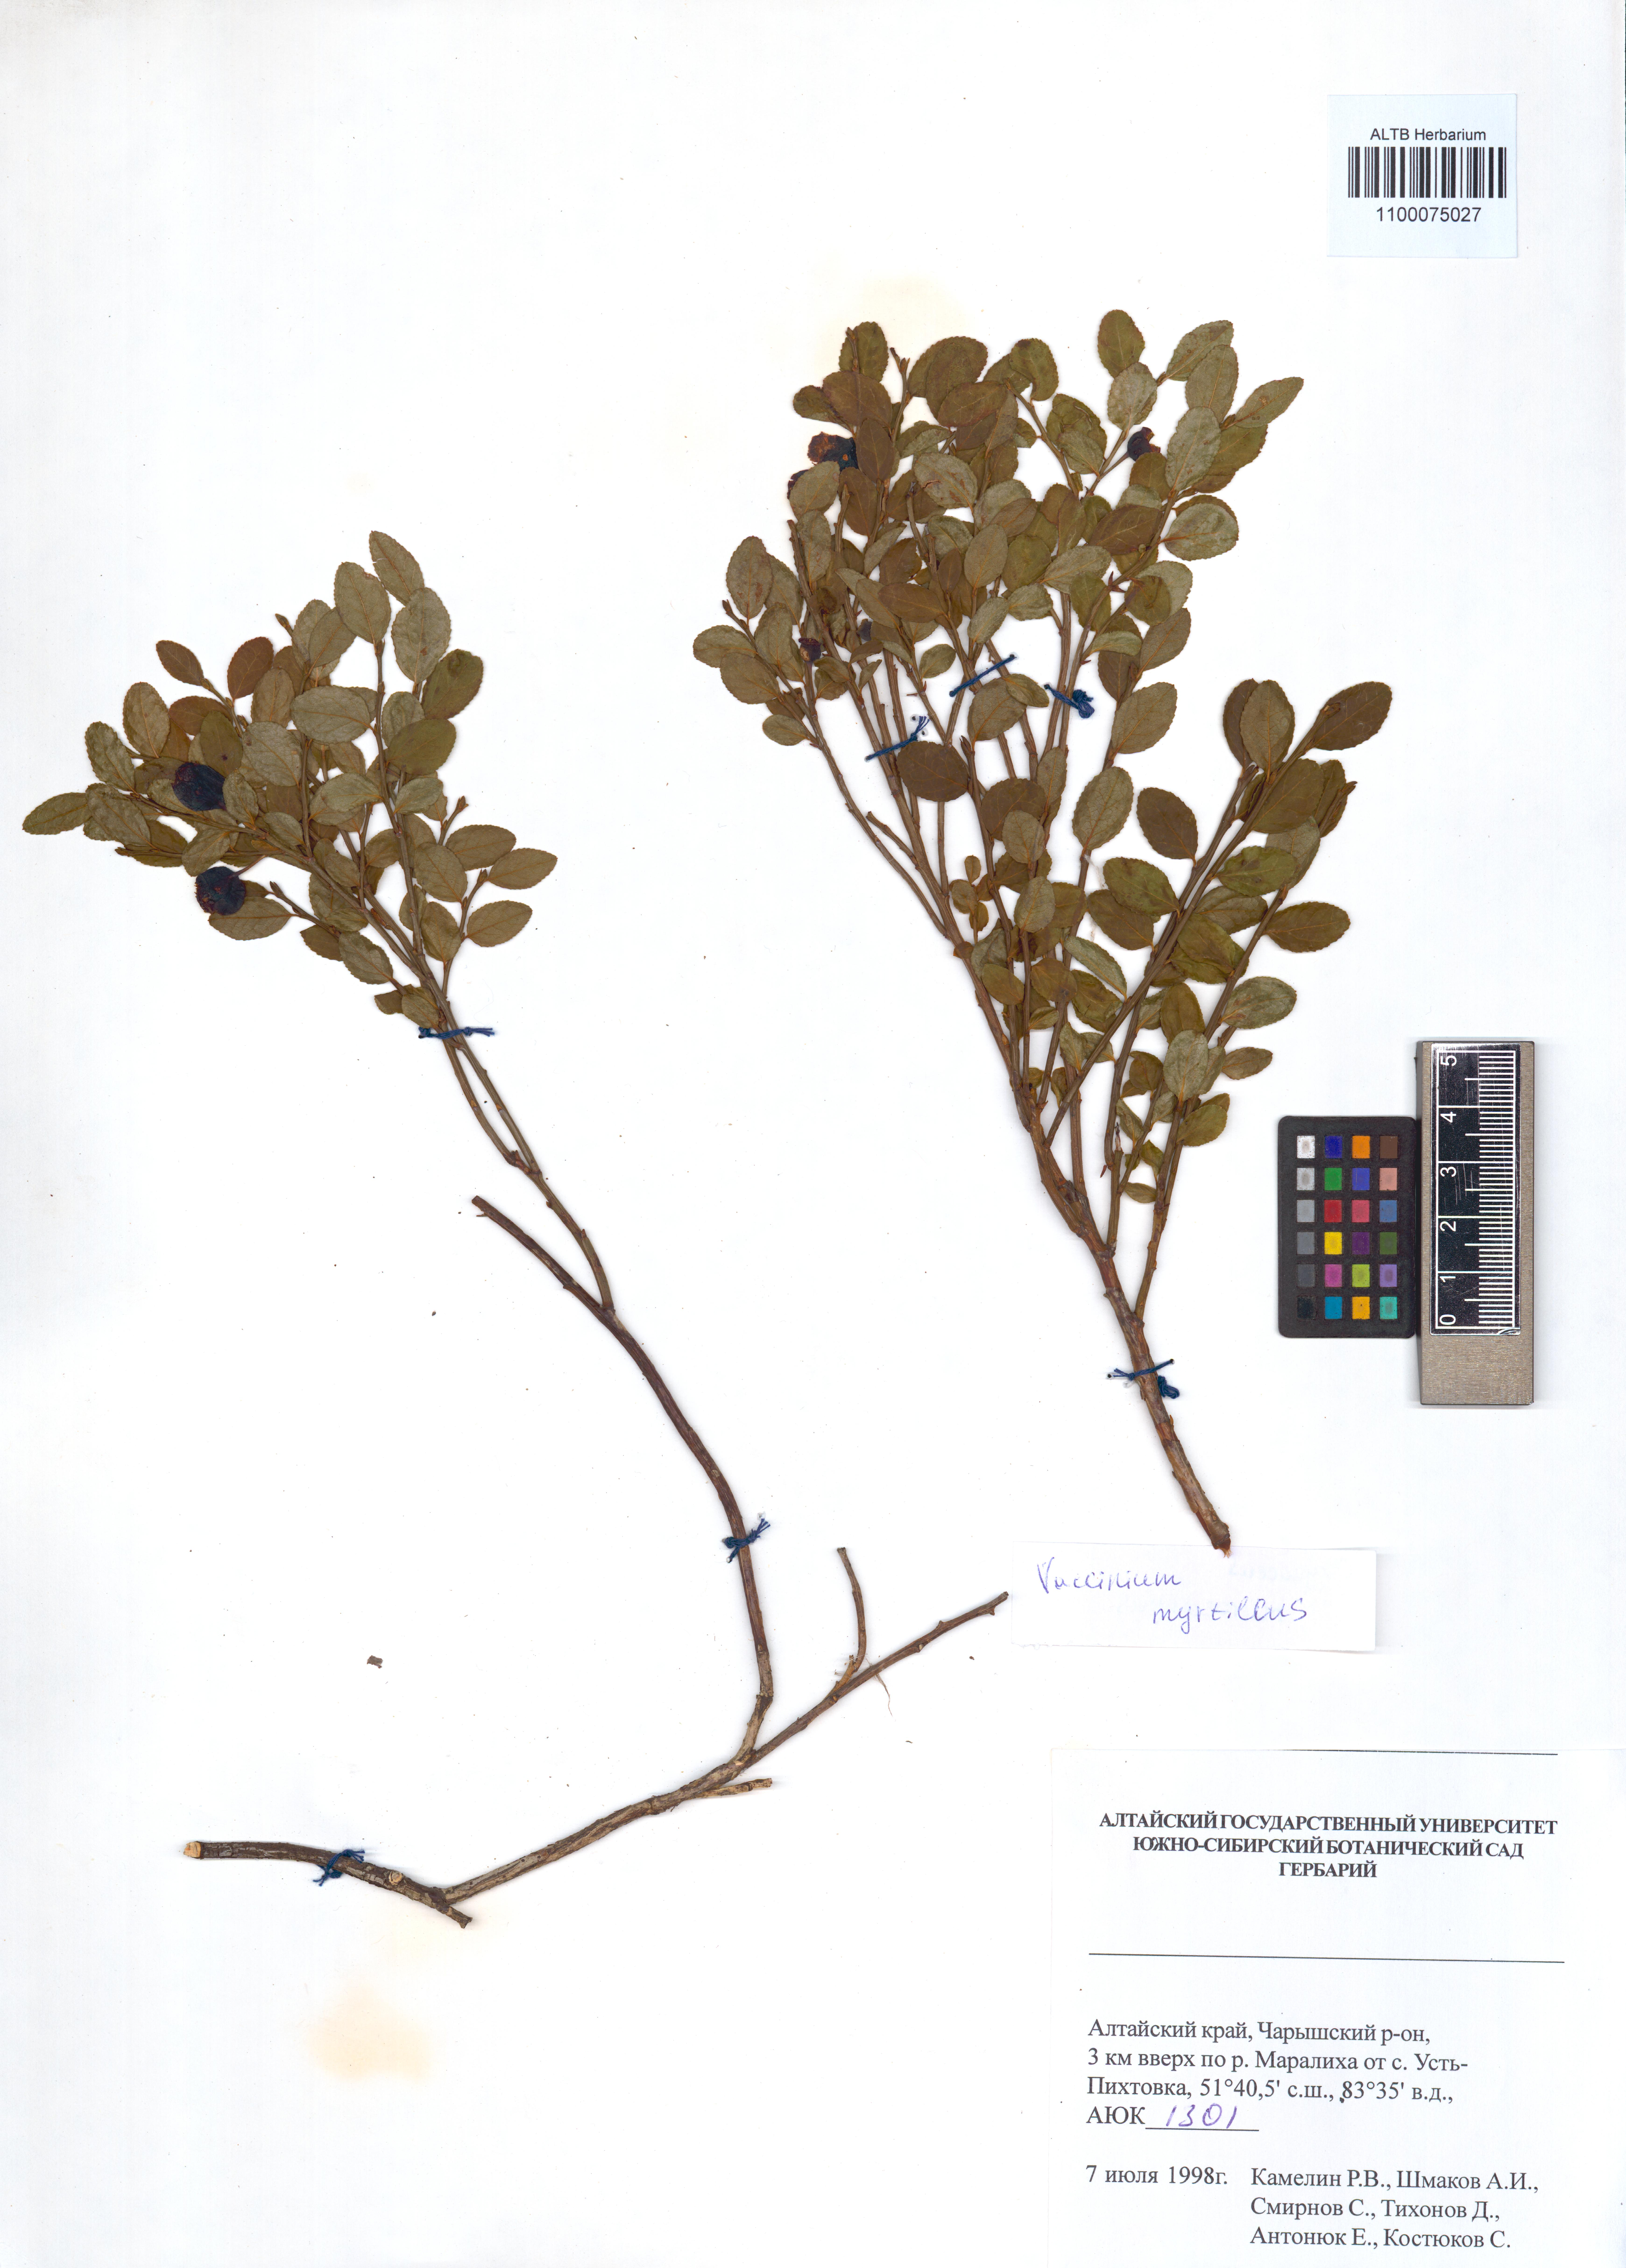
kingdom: Plantae
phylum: Tracheophyta
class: Magnoliopsida
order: Ericales
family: Ericaceae
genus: Vaccinium
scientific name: Vaccinium myrtillus
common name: Bilberry
